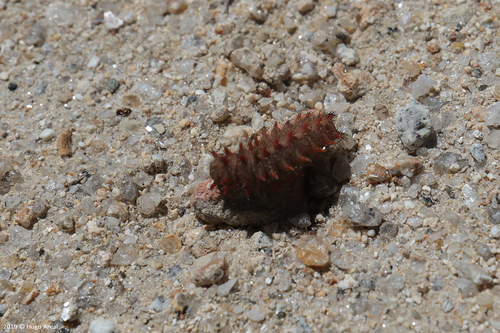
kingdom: Animalia
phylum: Arthropoda
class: Insecta
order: Lepidoptera
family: Papilionidae
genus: Zerynthia
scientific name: Zerynthia rumina
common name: Spanish festoon
